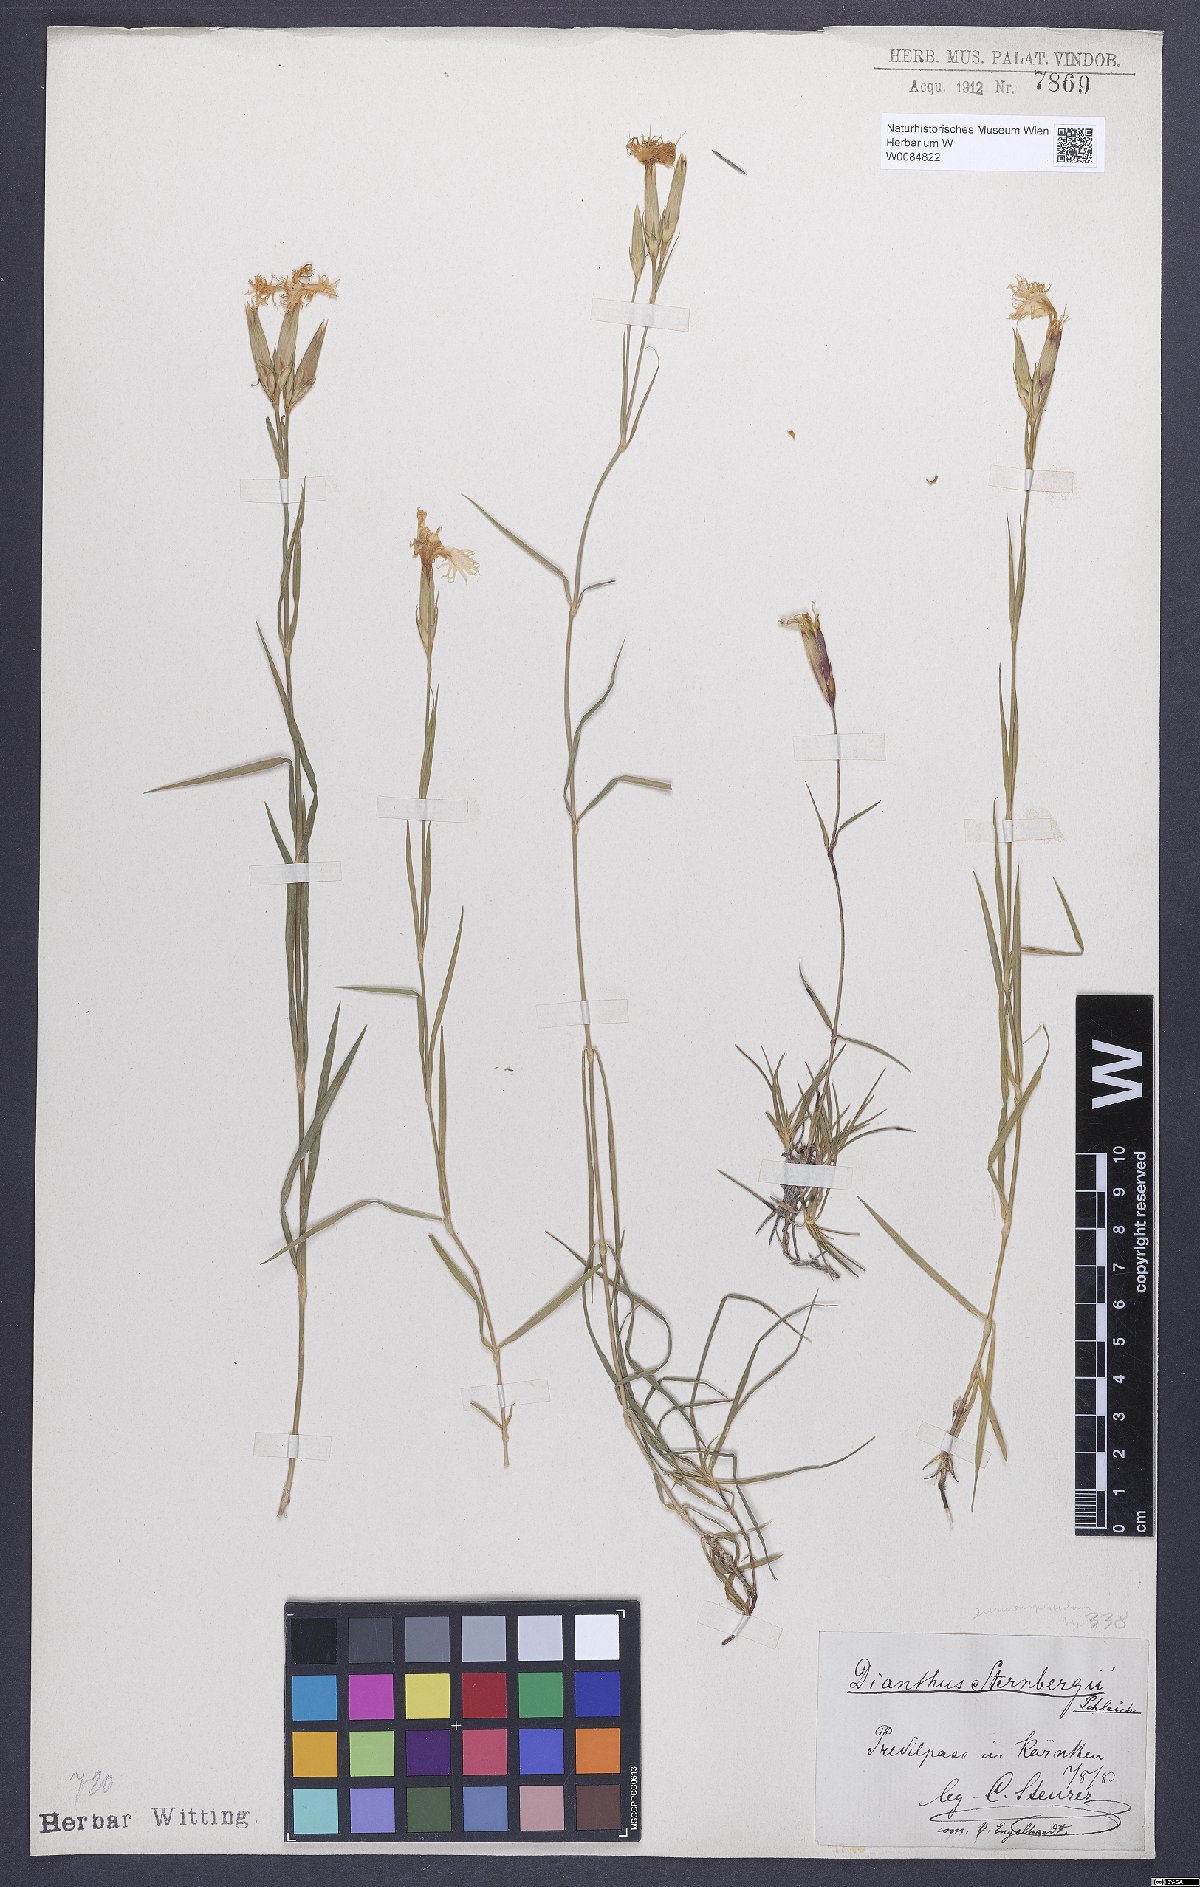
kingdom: Plantae
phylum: Tracheophyta
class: Magnoliopsida
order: Caryophyllales
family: Caryophyllaceae
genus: Dianthus
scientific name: Dianthus monspessulanus
